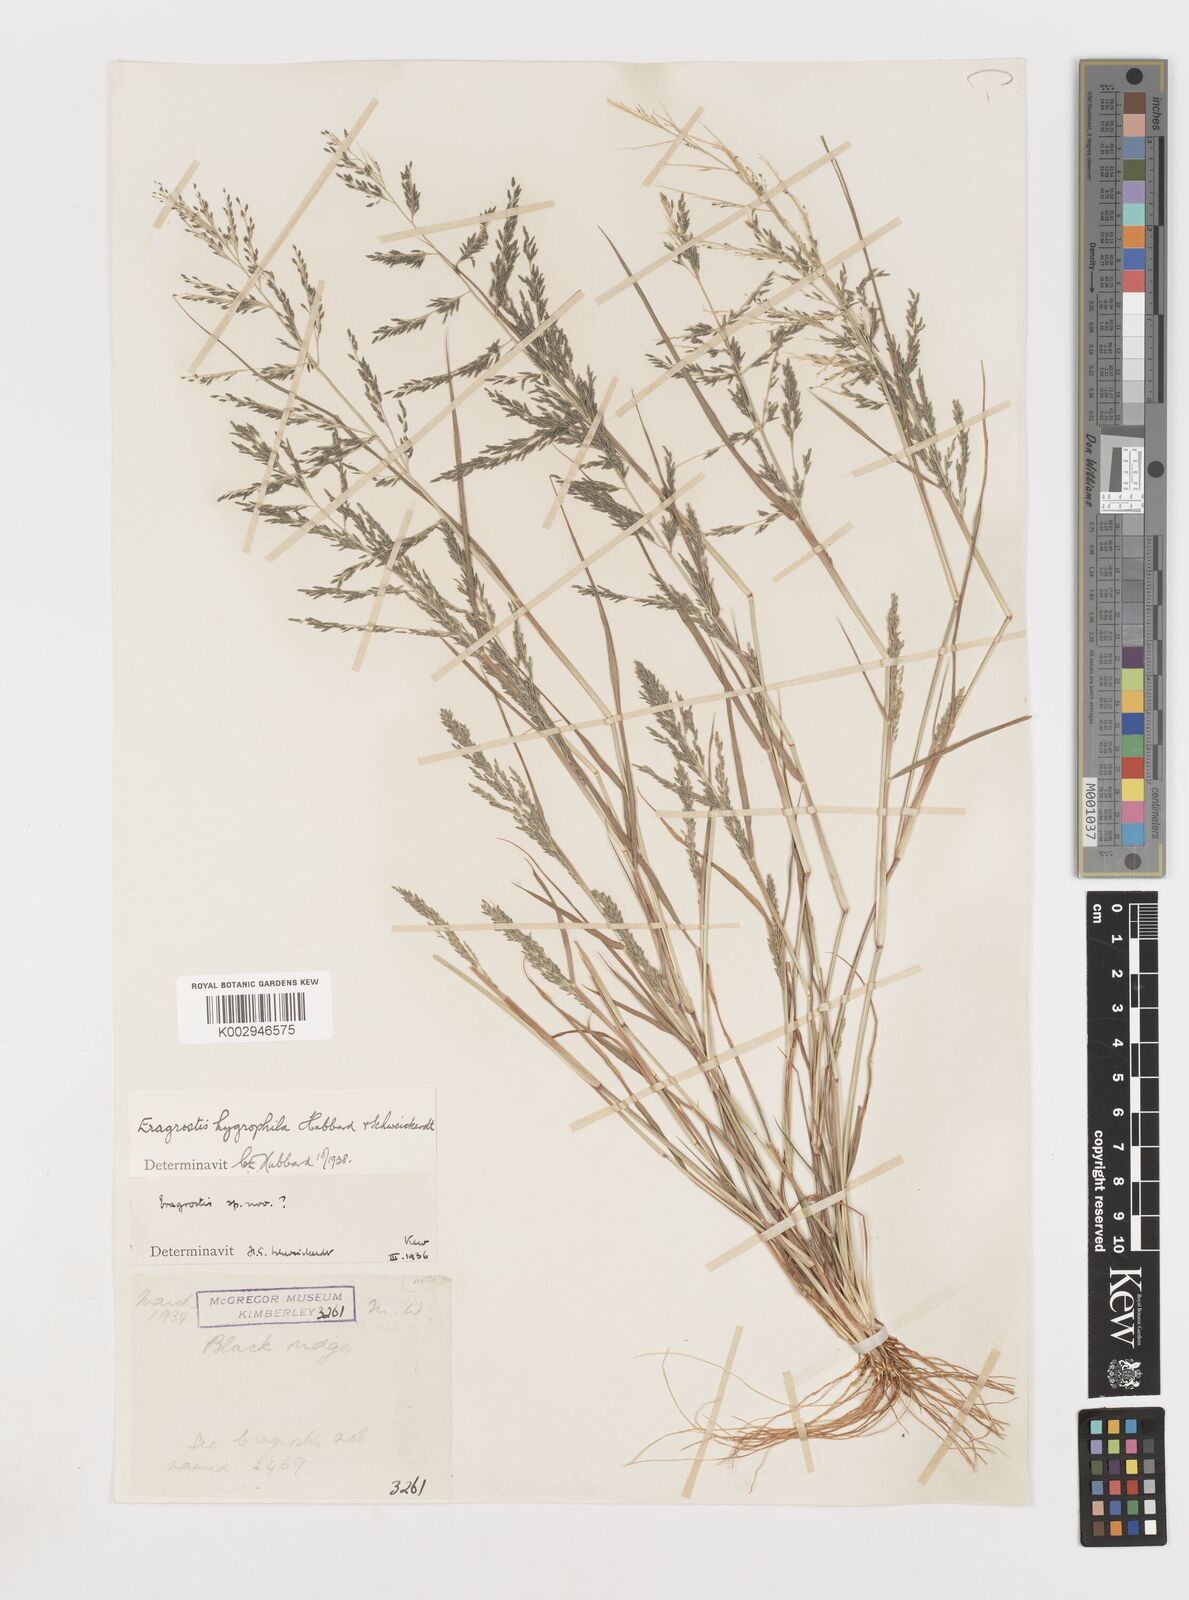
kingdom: Plantae
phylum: Tracheophyta
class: Liliopsida
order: Poales
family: Poaceae
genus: Eragrostis
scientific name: Eragrostis homomalla
